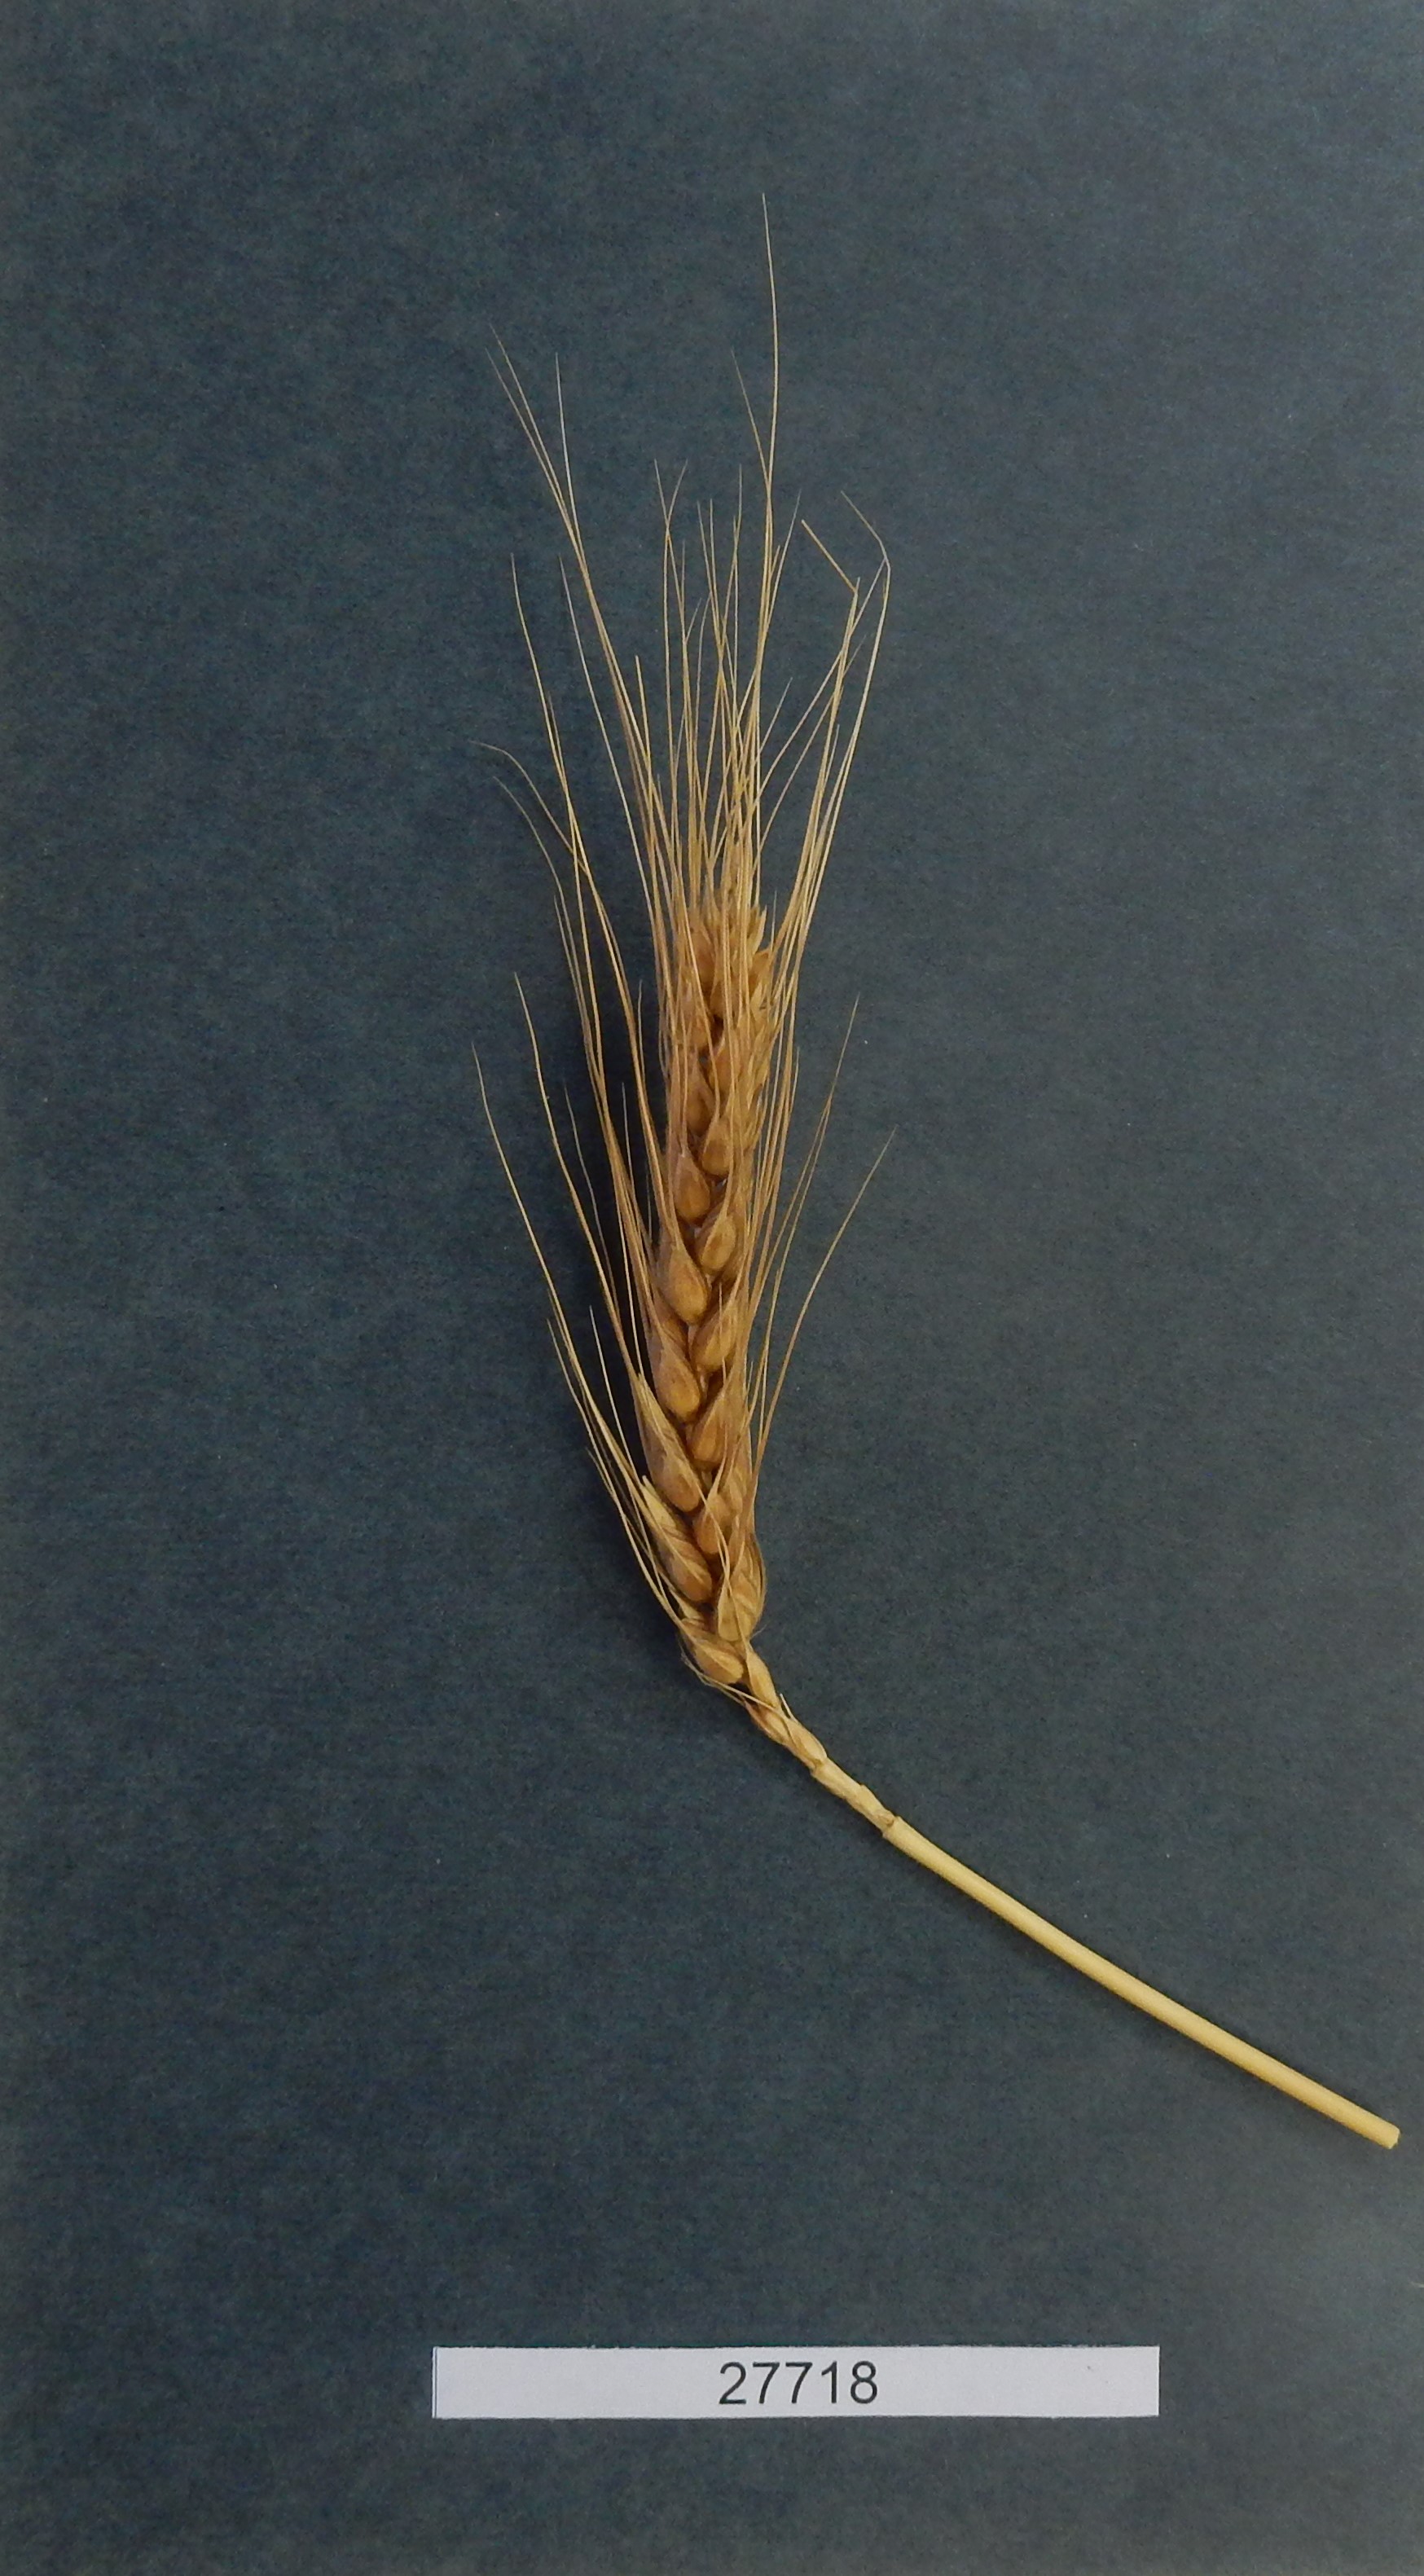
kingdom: Plantae
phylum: Tracheophyta
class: Liliopsida
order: Poales
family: Poaceae
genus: Triticum
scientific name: Triticum aestivum
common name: Common wheat
